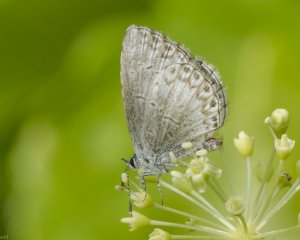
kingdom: Animalia
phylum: Arthropoda
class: Insecta
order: Lepidoptera
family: Lycaenidae
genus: Cyaniris
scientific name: Cyaniris neglecta
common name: Summer Azure
